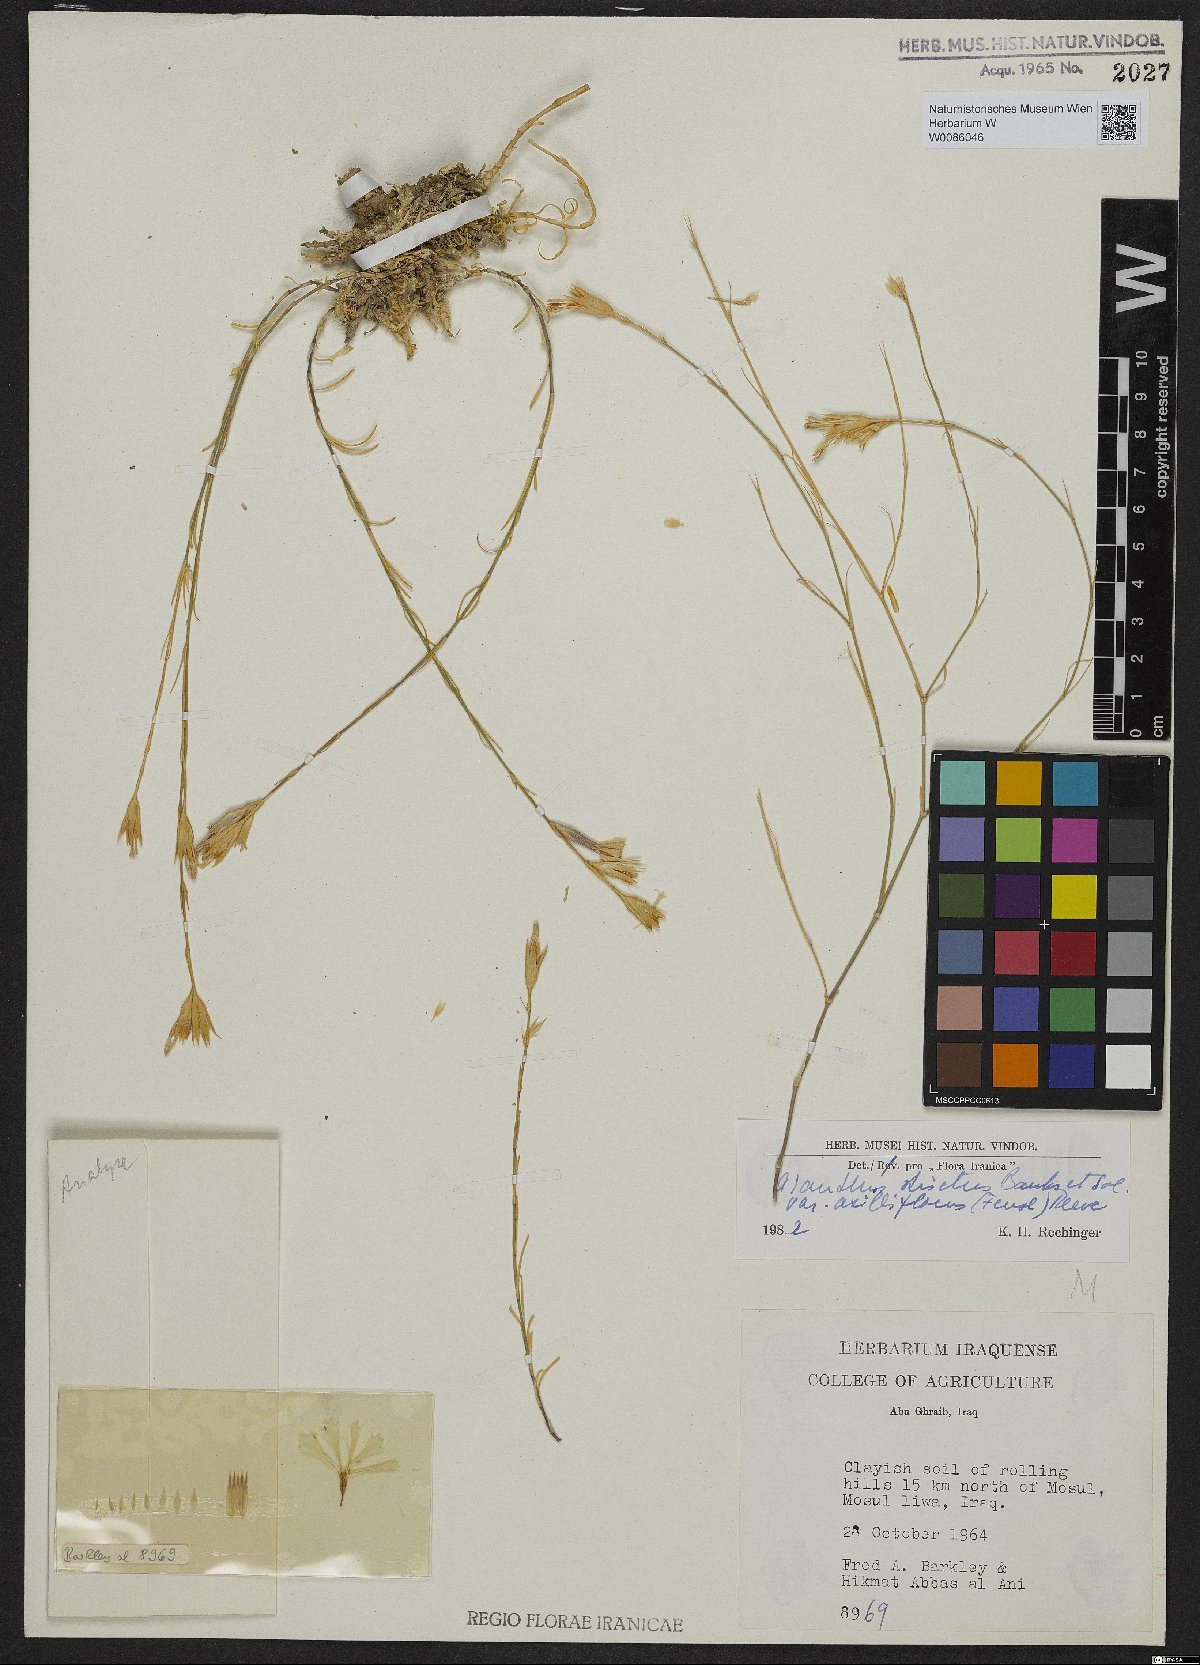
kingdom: Plantae
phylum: Tracheophyta
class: Magnoliopsida
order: Caryophyllales
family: Caryophyllaceae
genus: Dianthus
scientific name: Dianthus strictus
